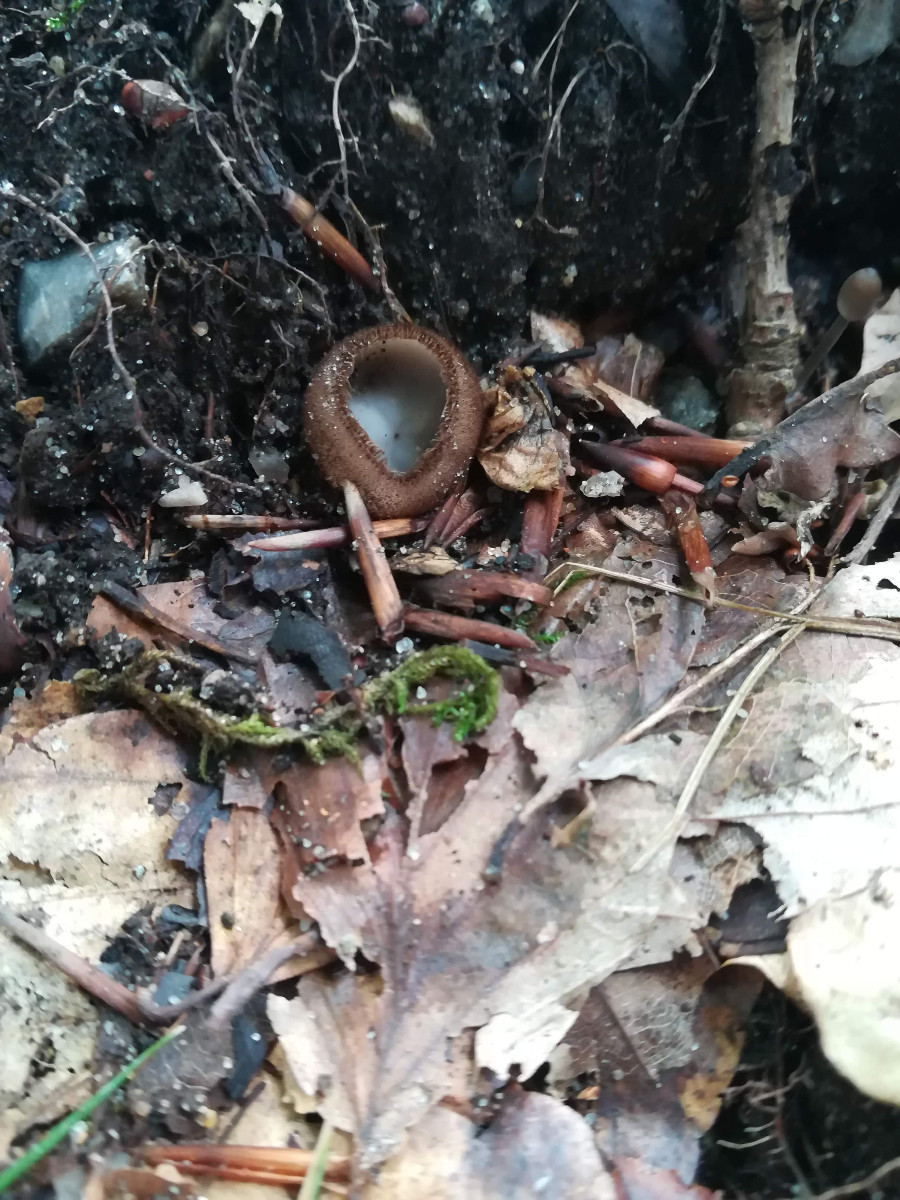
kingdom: Fungi
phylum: Ascomycota
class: Pezizomycetes
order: Pezizales
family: Pyronemataceae
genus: Humaria
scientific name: Humaria hemisphaerica
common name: halvkugleformet børstebæger
